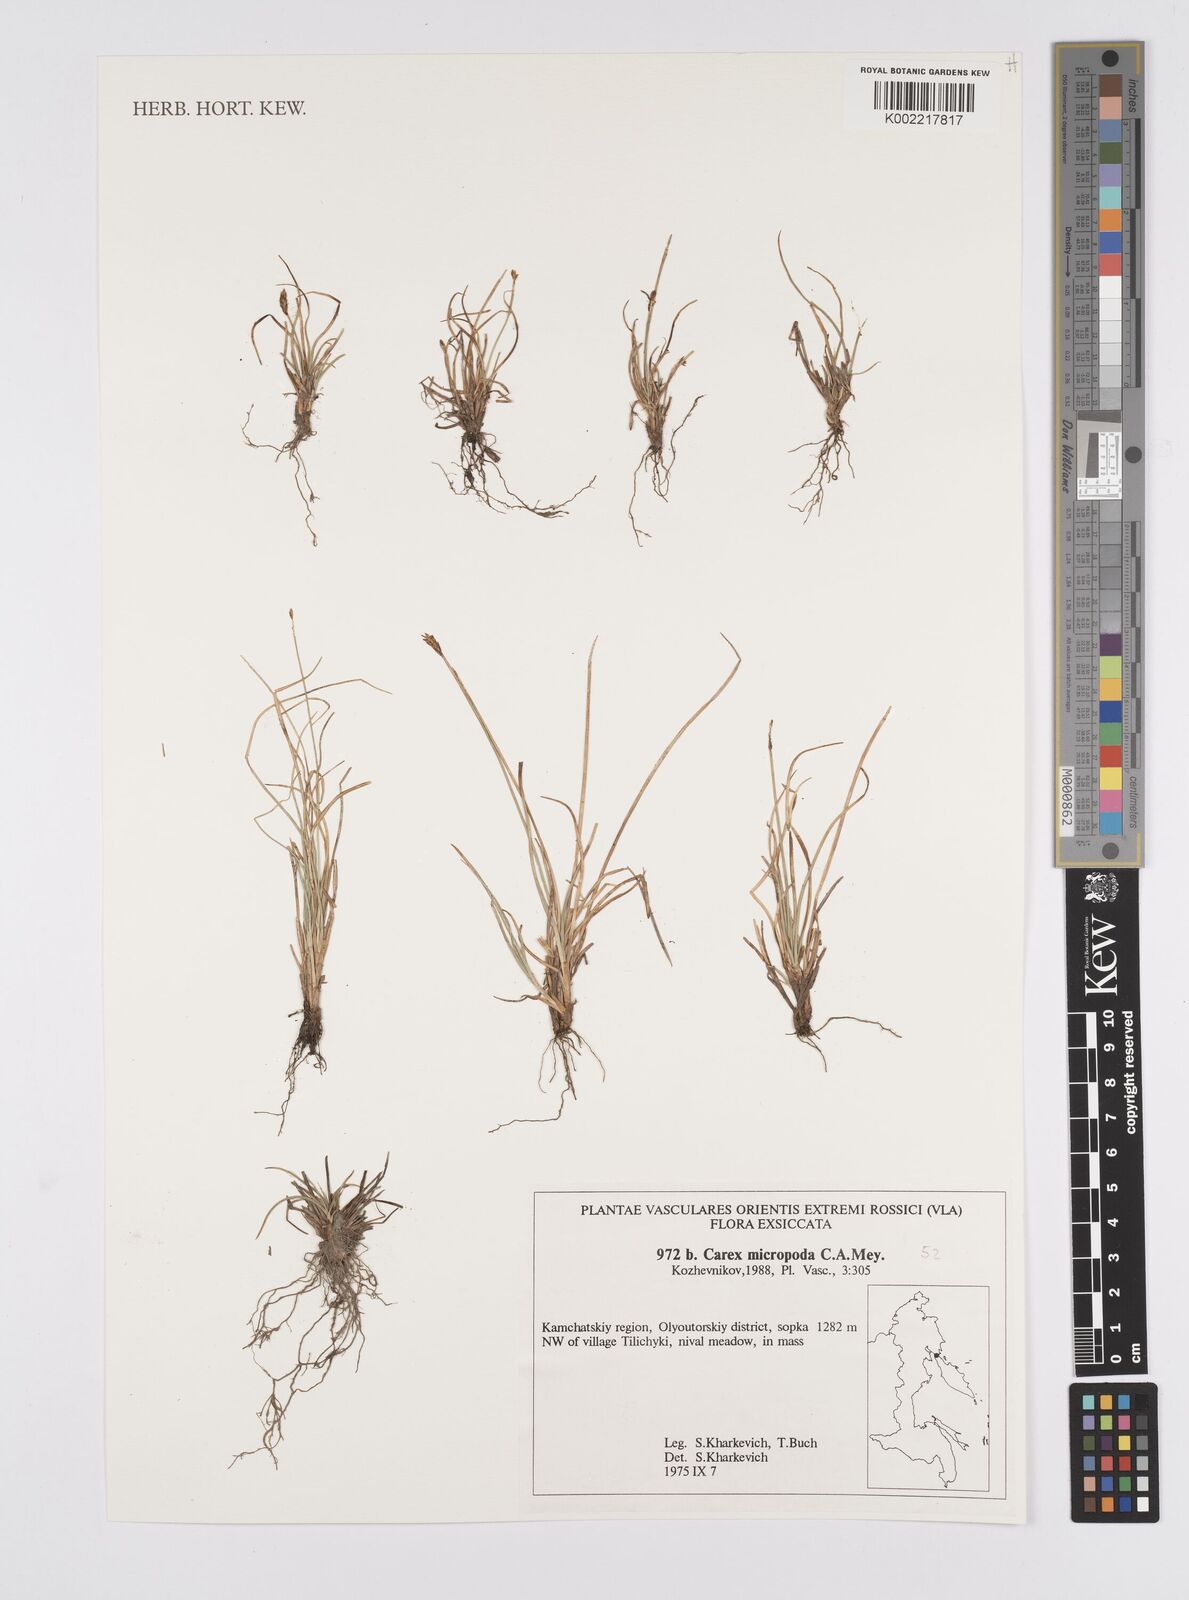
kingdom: Plantae
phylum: Tracheophyta
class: Liliopsida
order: Poales
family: Cyperaceae
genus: Carex
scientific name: Carex
